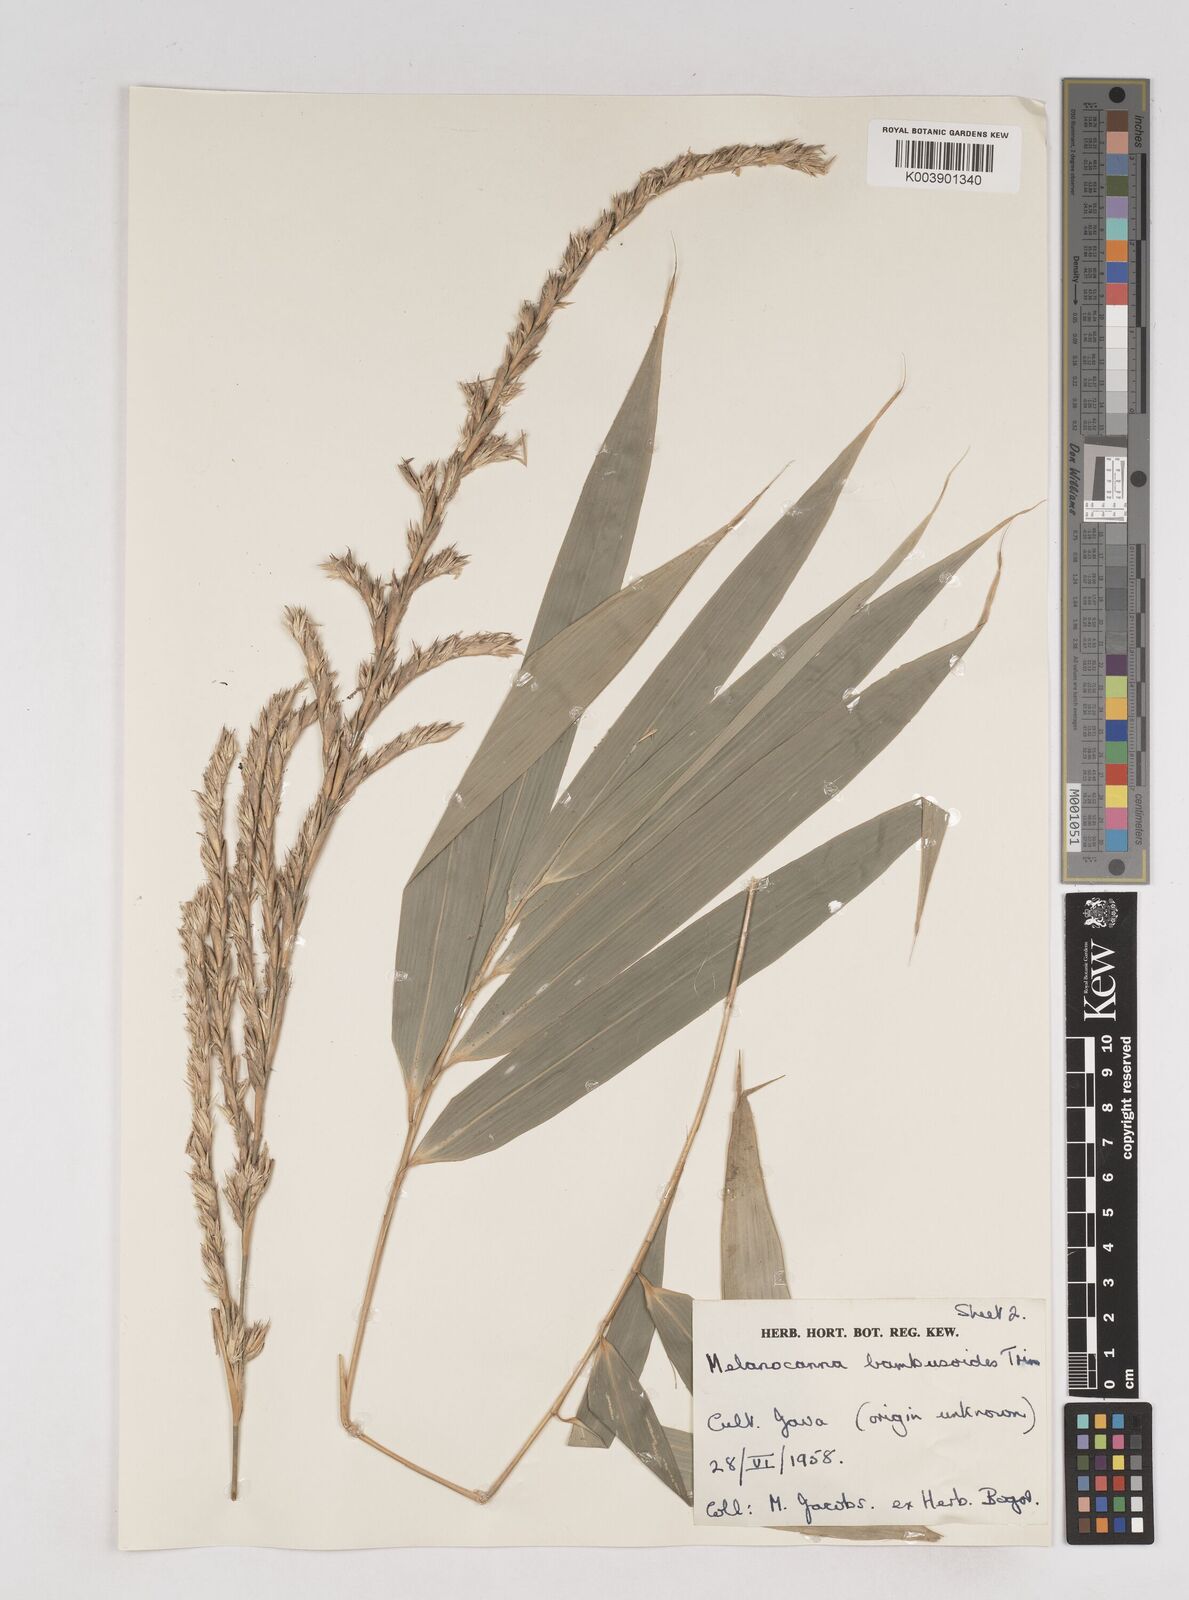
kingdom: Plantae
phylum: Tracheophyta
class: Liliopsida
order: Poales
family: Poaceae
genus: Melocanna
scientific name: Melocanna baccifera
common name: Berry bamboo
